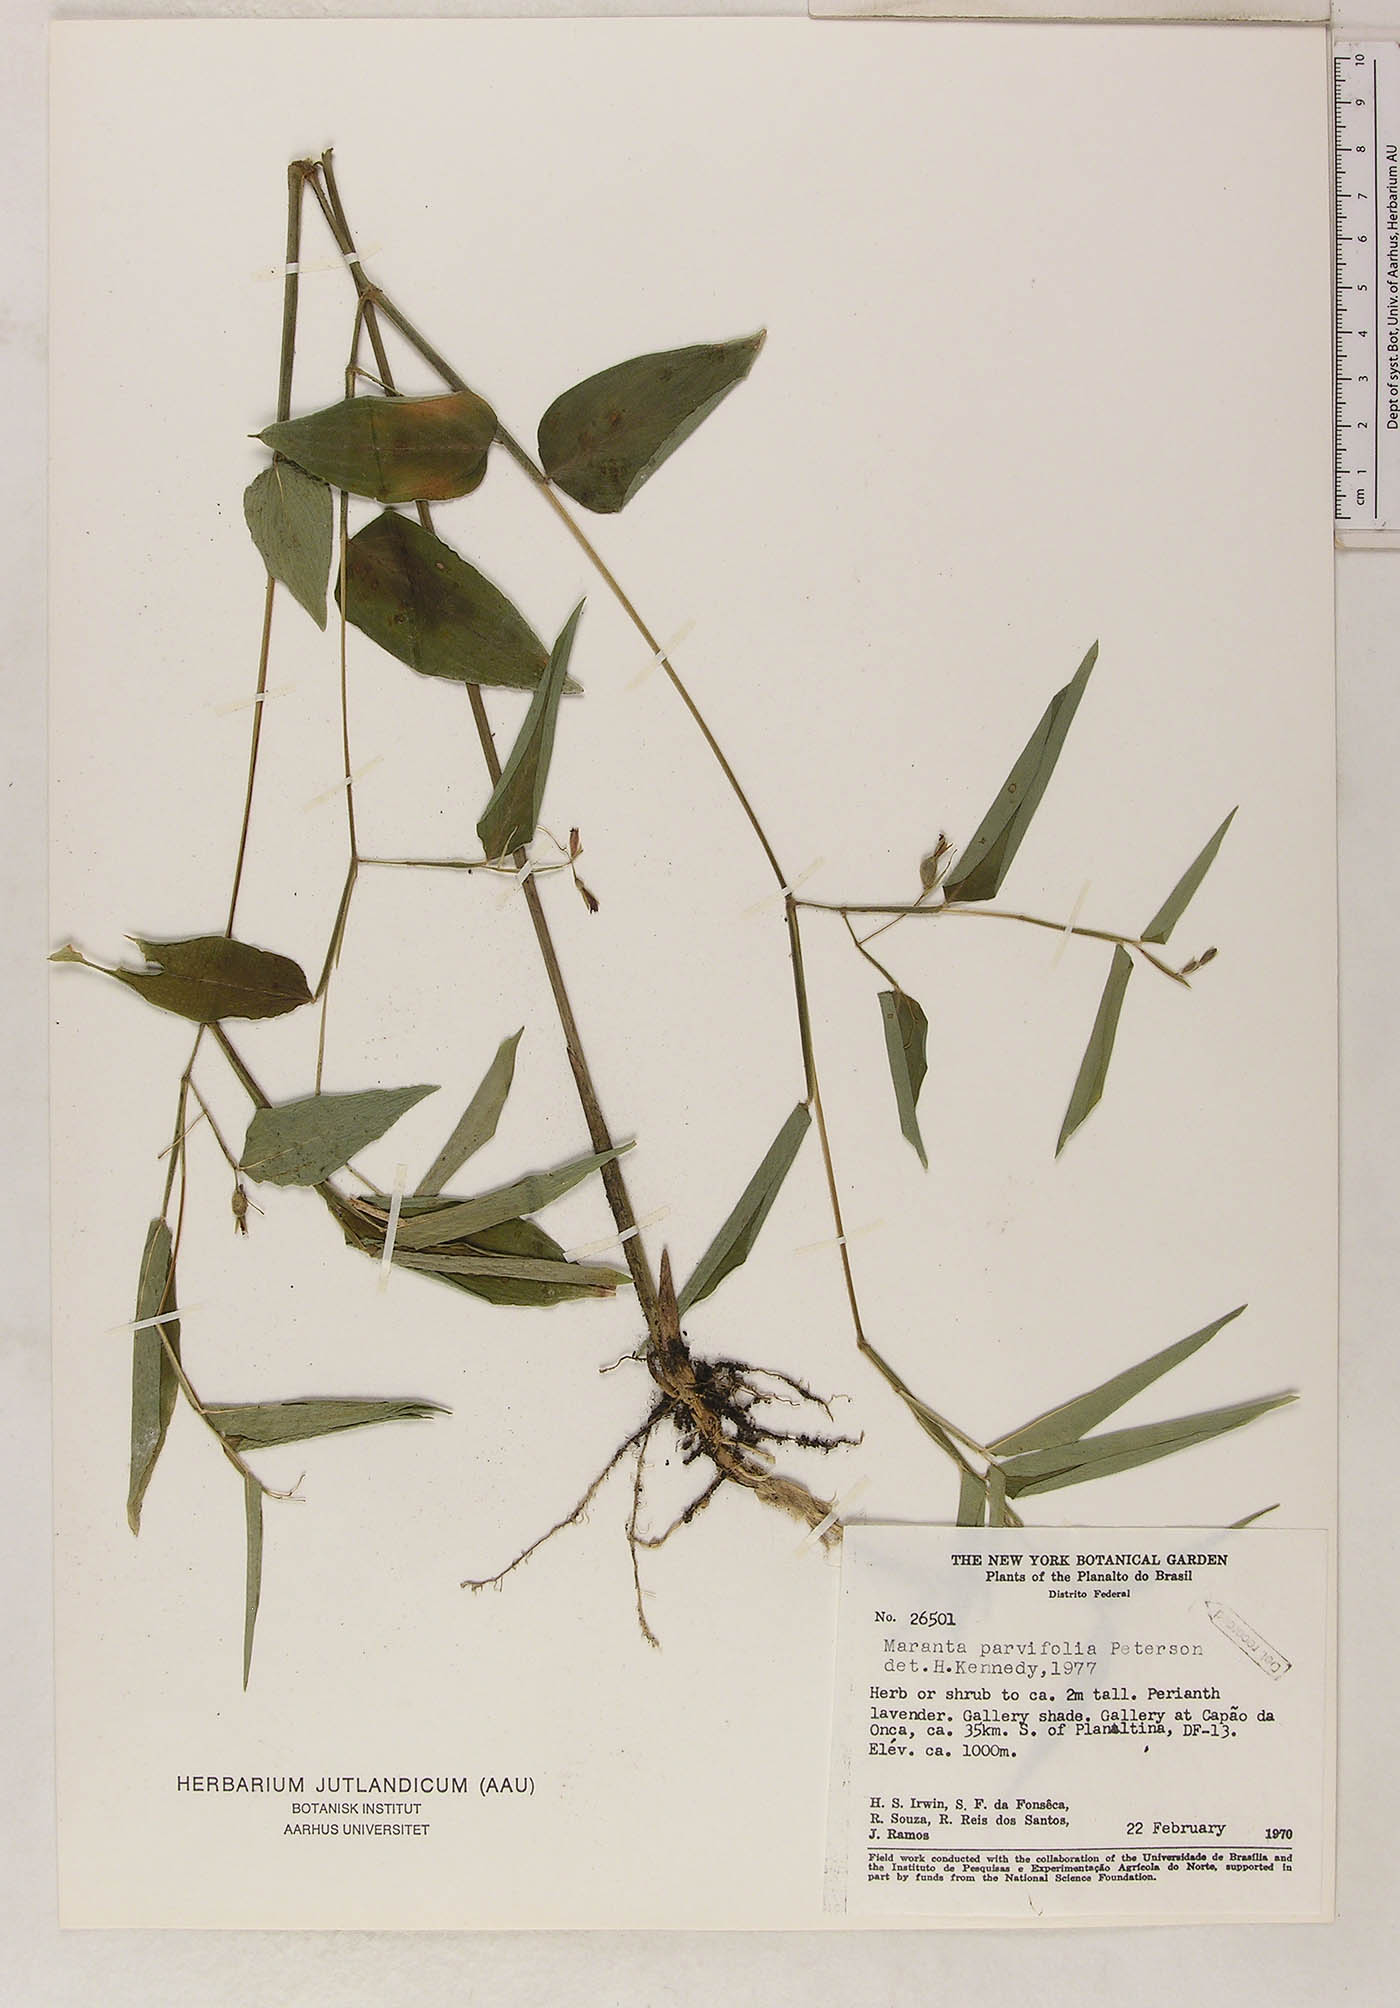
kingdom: Plantae
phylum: Tracheophyta
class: Liliopsida
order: Zingiberales
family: Marantaceae
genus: Maranta
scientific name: Maranta parvifolia
